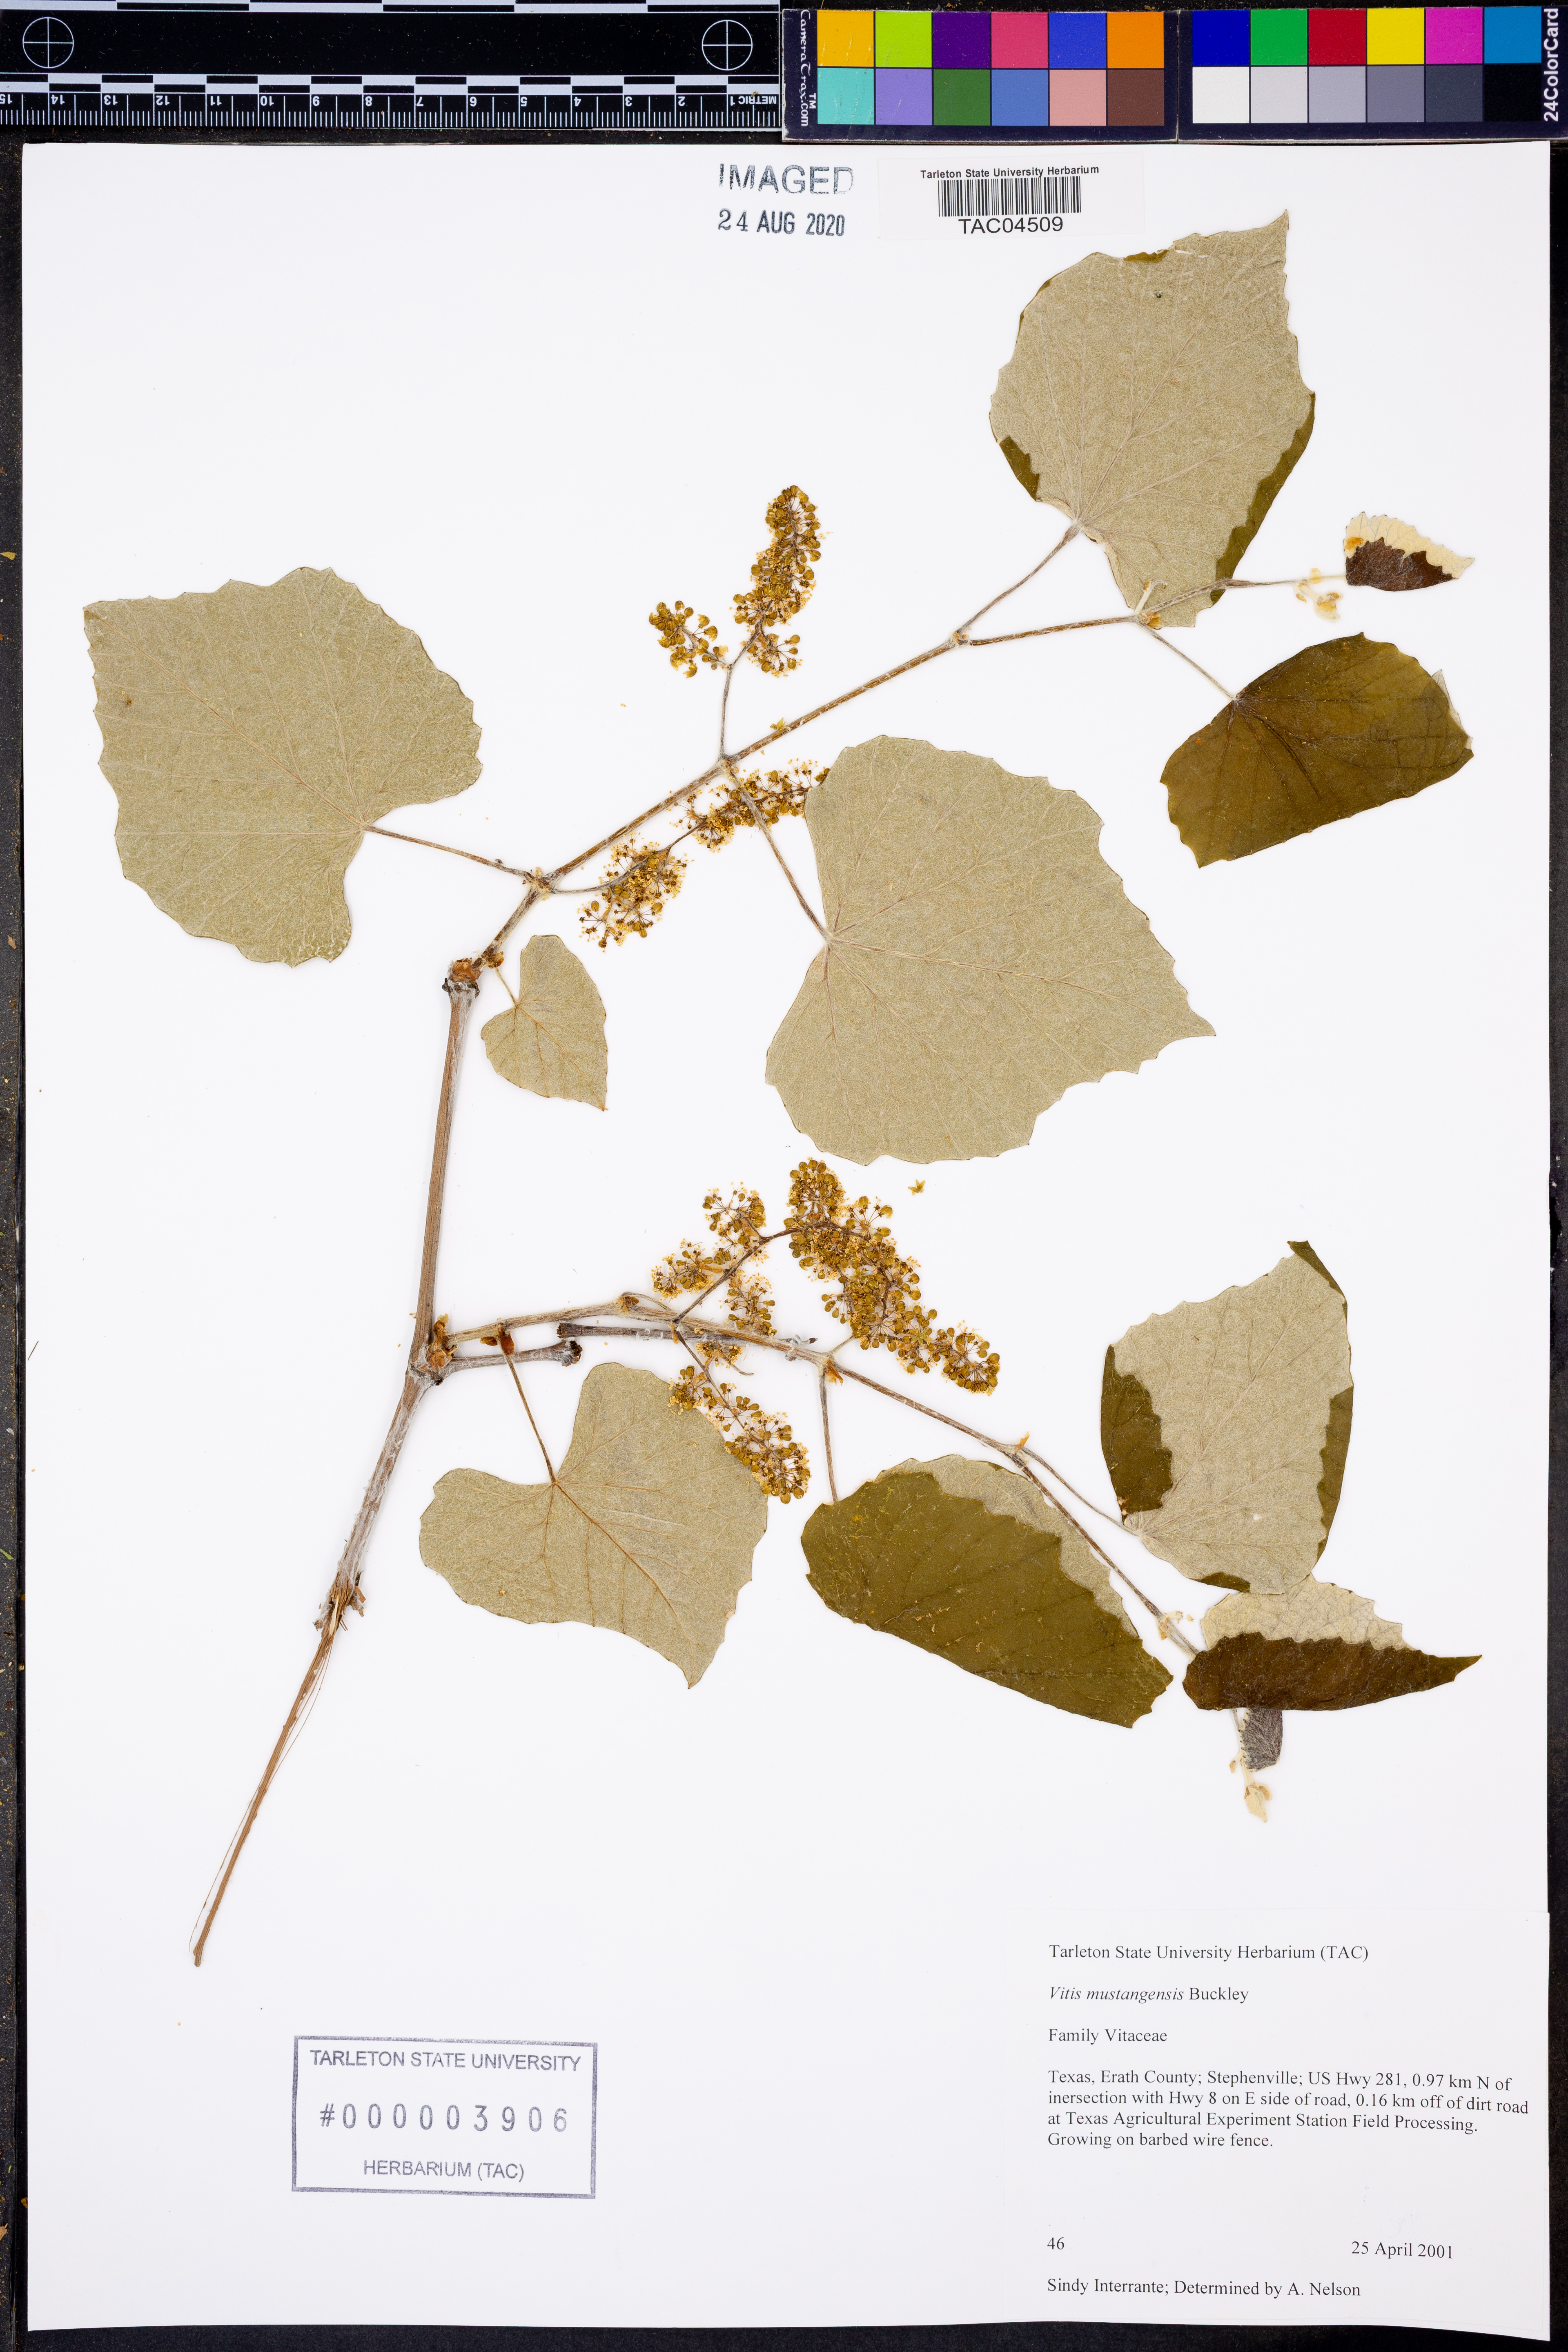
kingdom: Plantae
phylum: Tracheophyta
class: Magnoliopsida
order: Vitales
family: Vitaceae
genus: Vitis
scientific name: Vitis mustangensis
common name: Mustang grape
